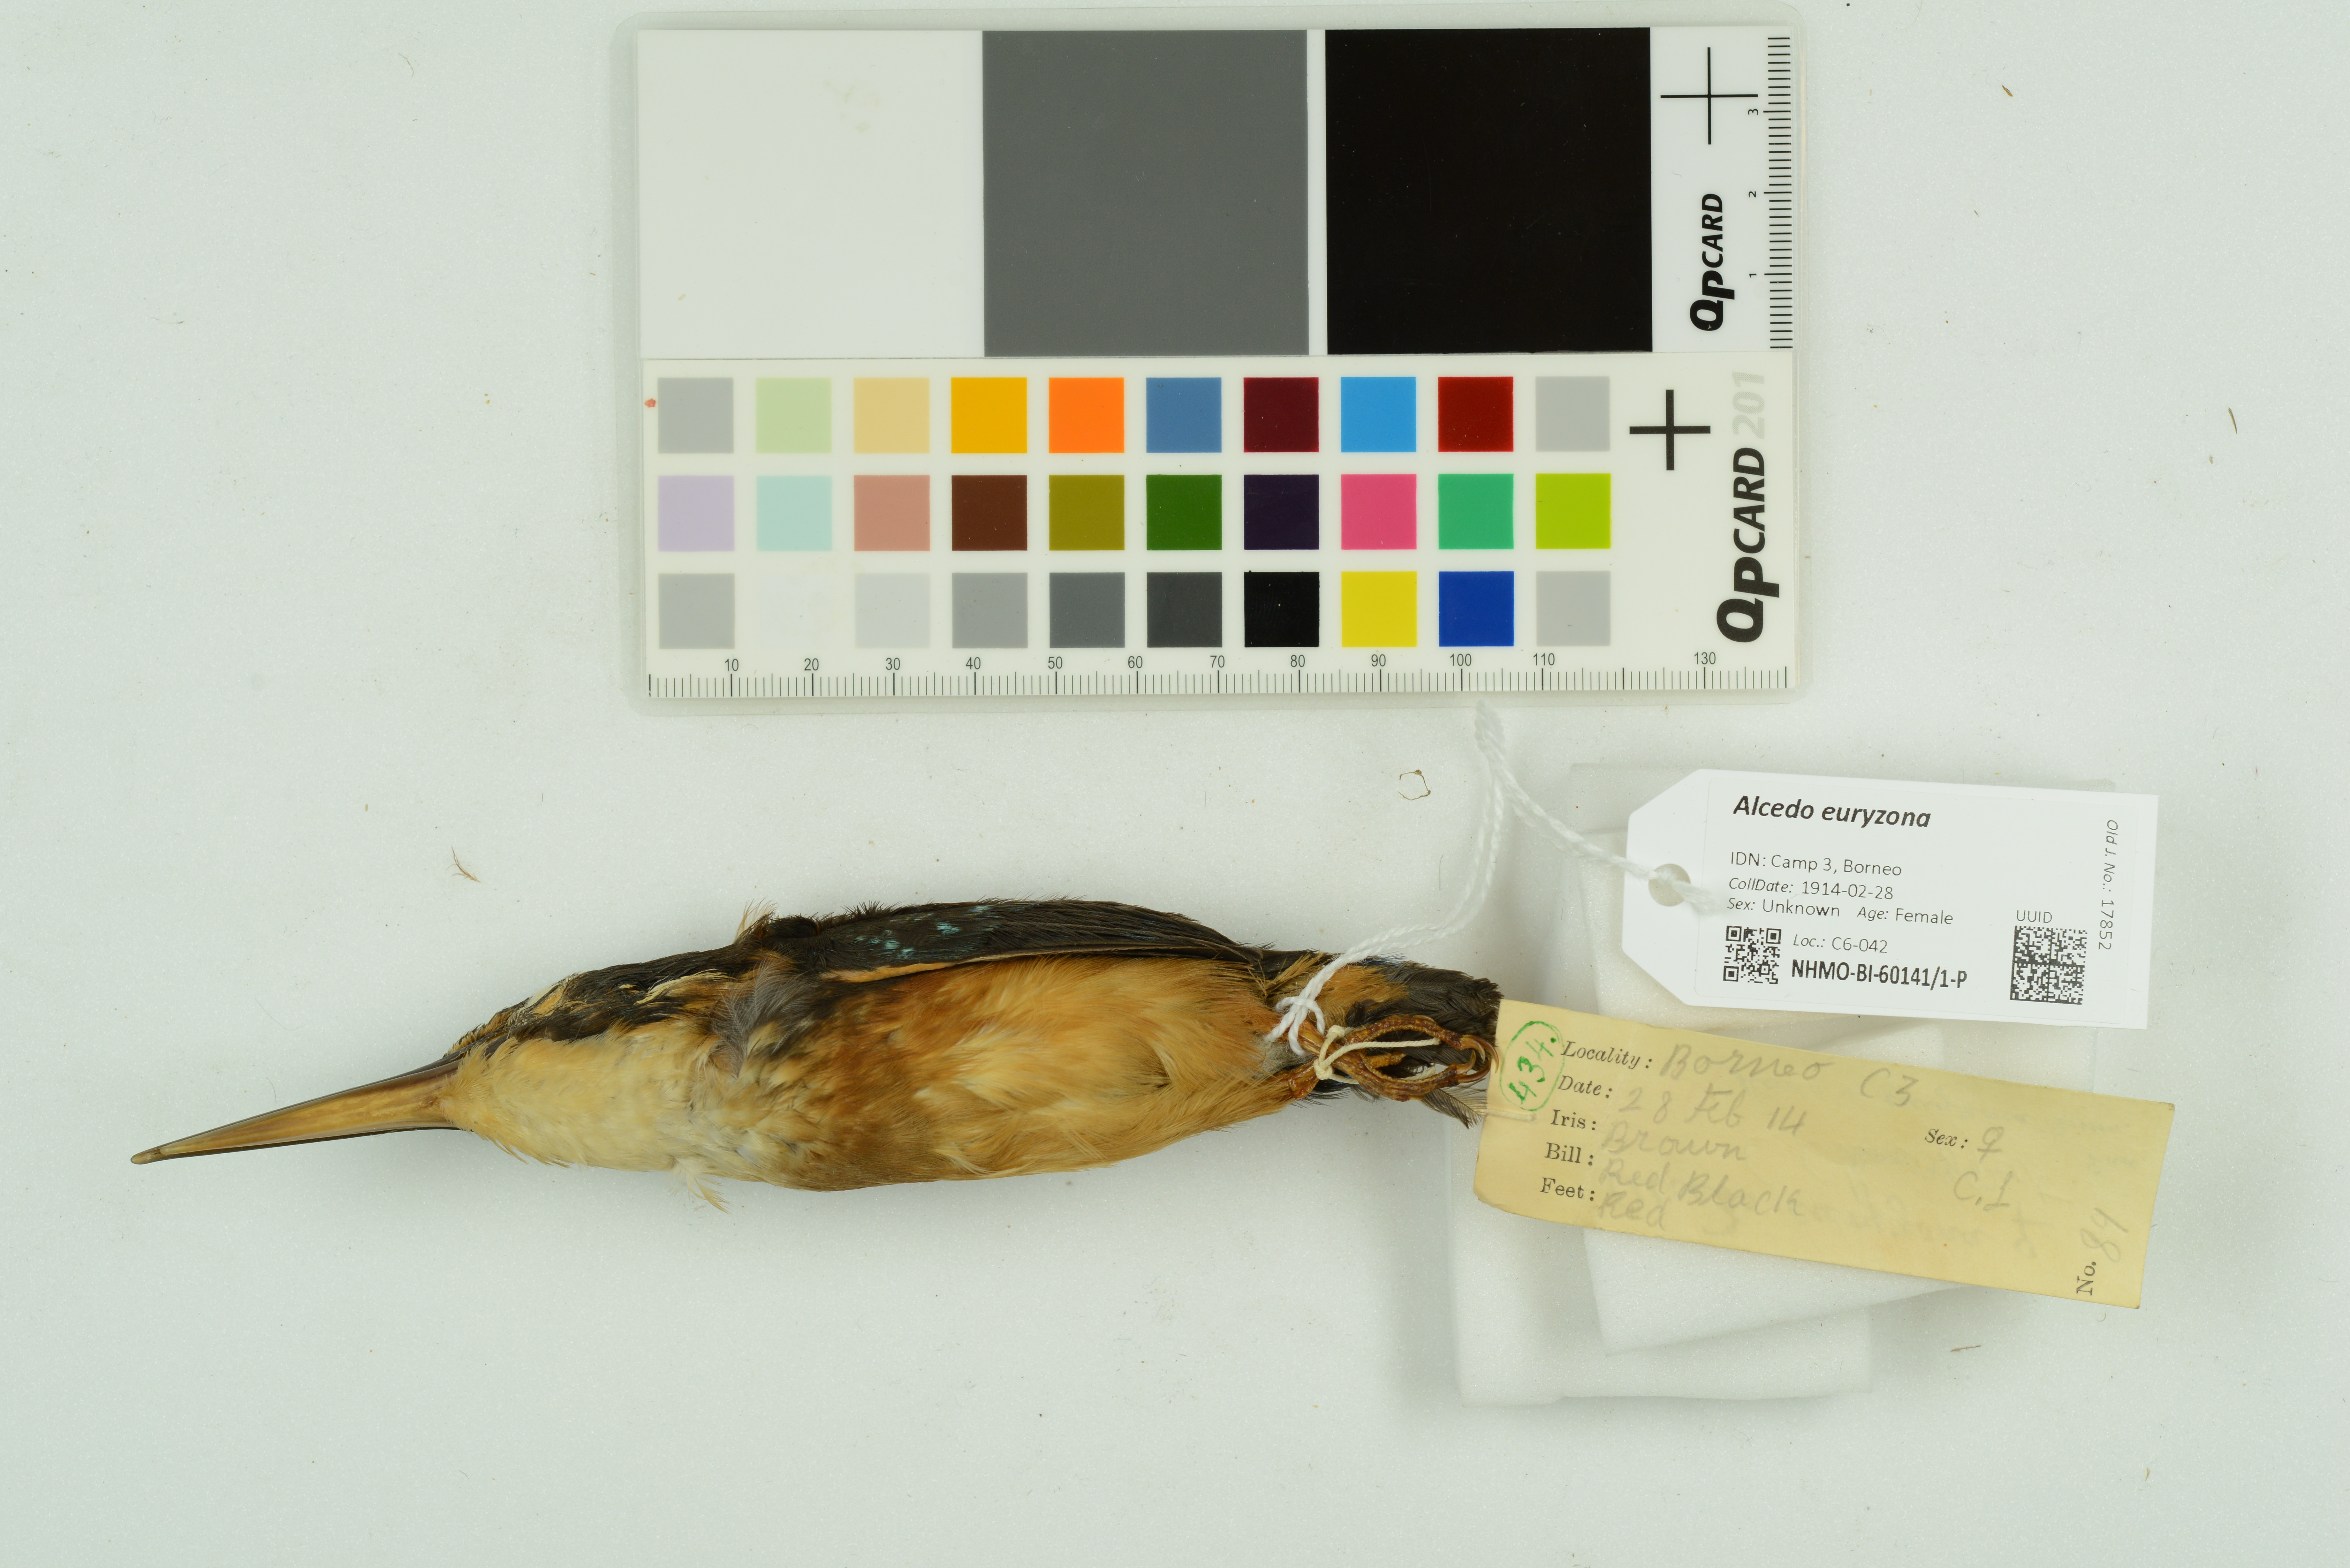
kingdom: Animalia
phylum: Chordata
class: Aves
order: Coraciiformes
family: Alcedinidae
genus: Alcedo
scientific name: Alcedo euryzona
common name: Blue-banded kingfisher
